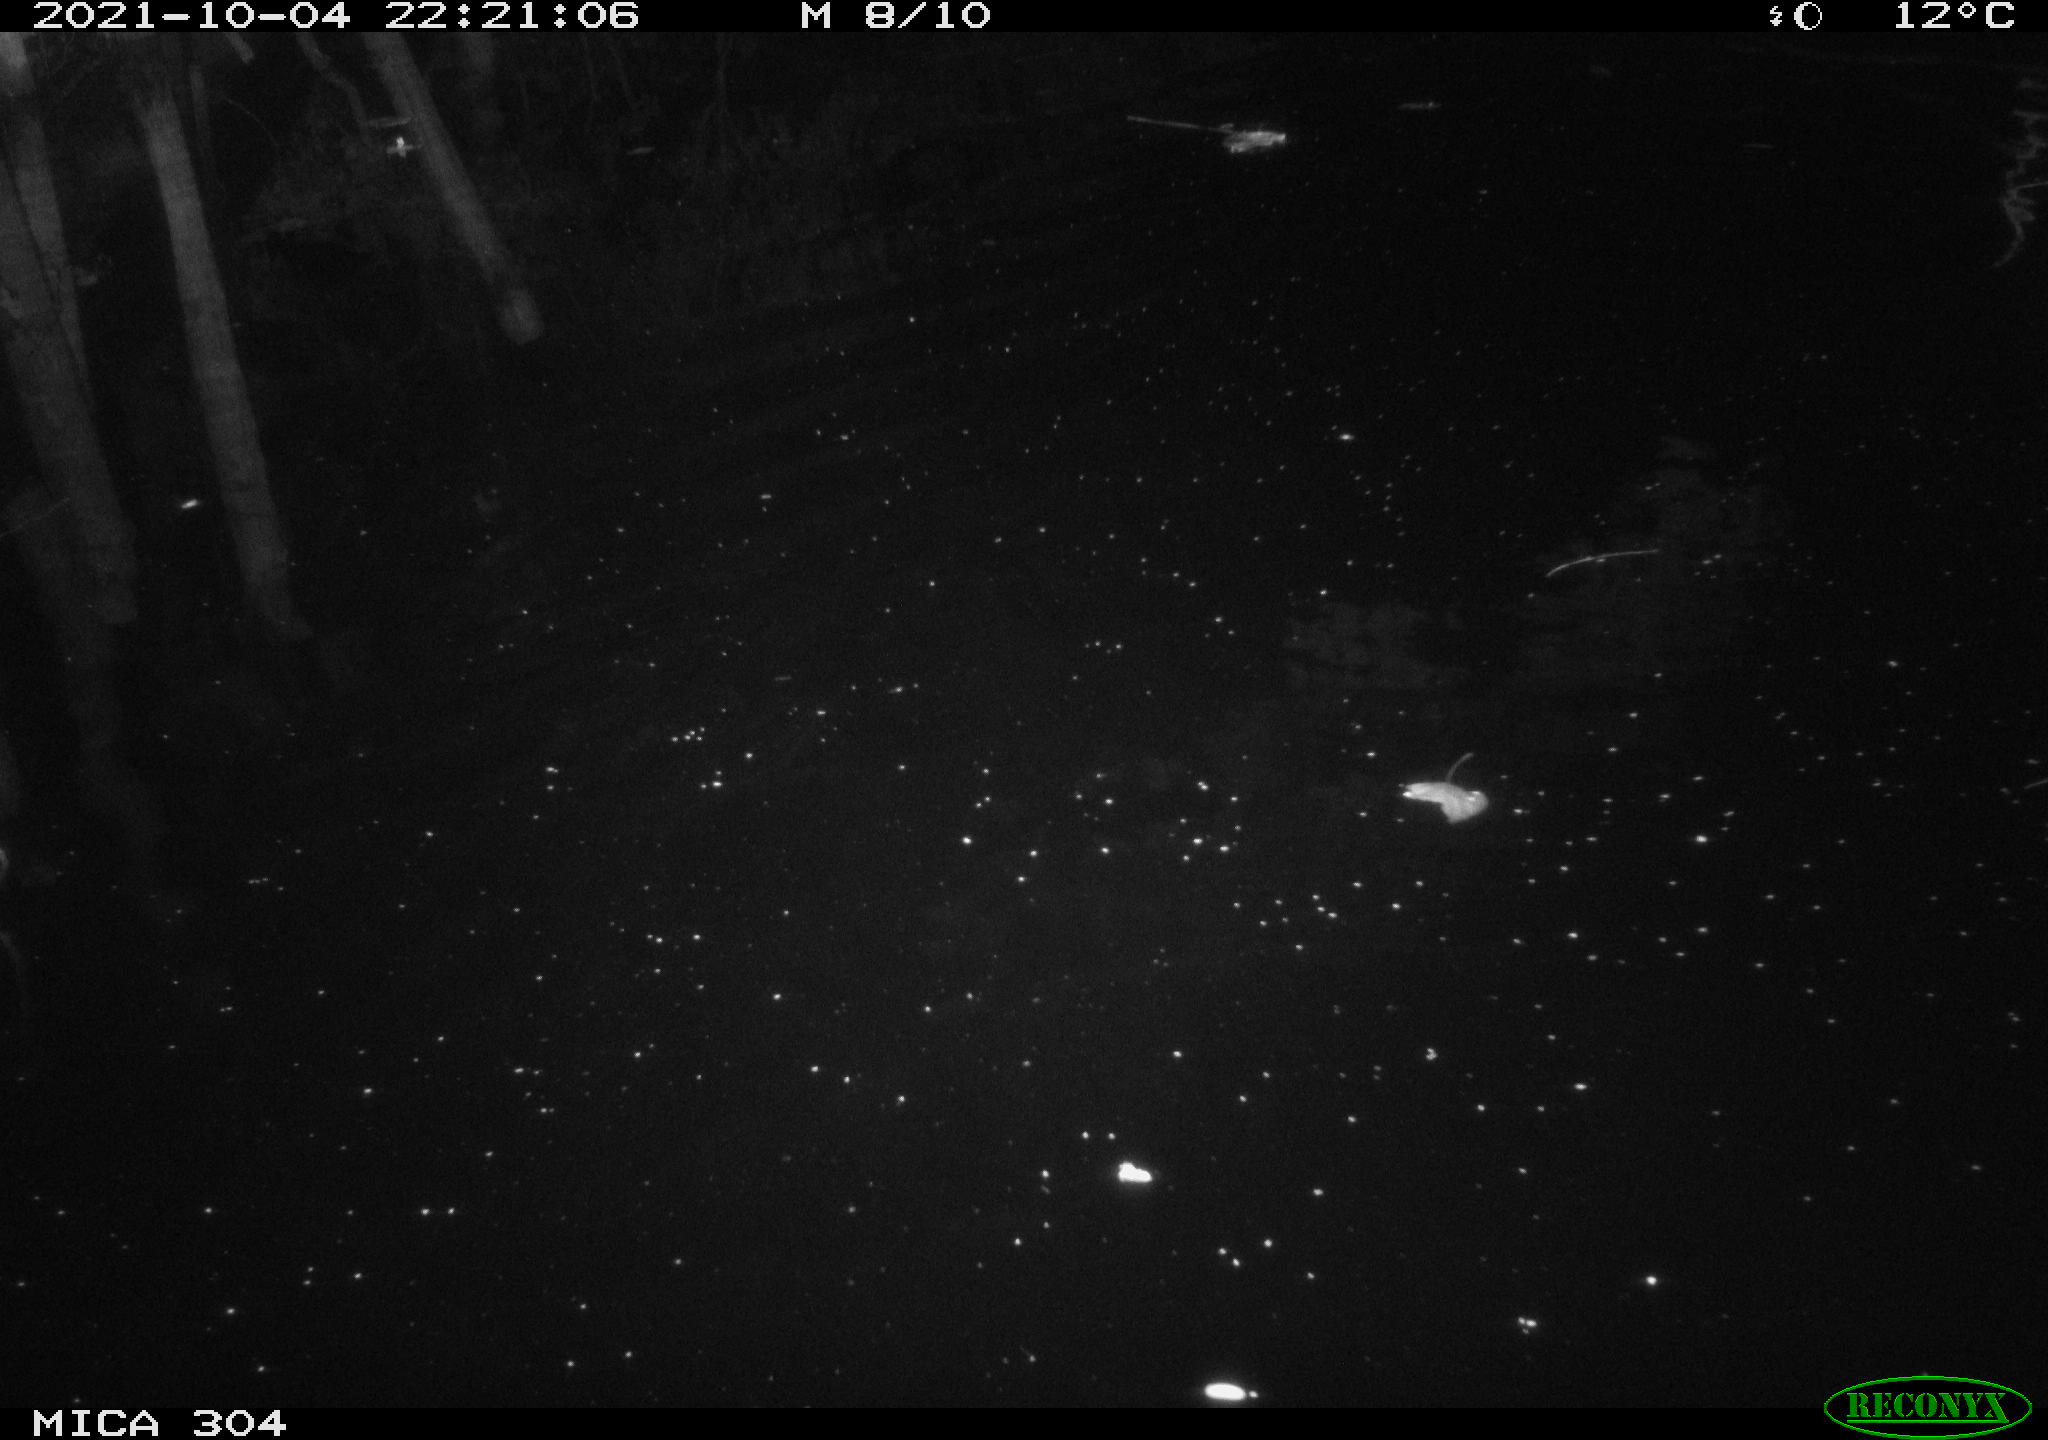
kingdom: Animalia
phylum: Chordata
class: Mammalia
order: Rodentia
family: Cricetidae
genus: Ondatra
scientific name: Ondatra zibethicus
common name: Muskrat
